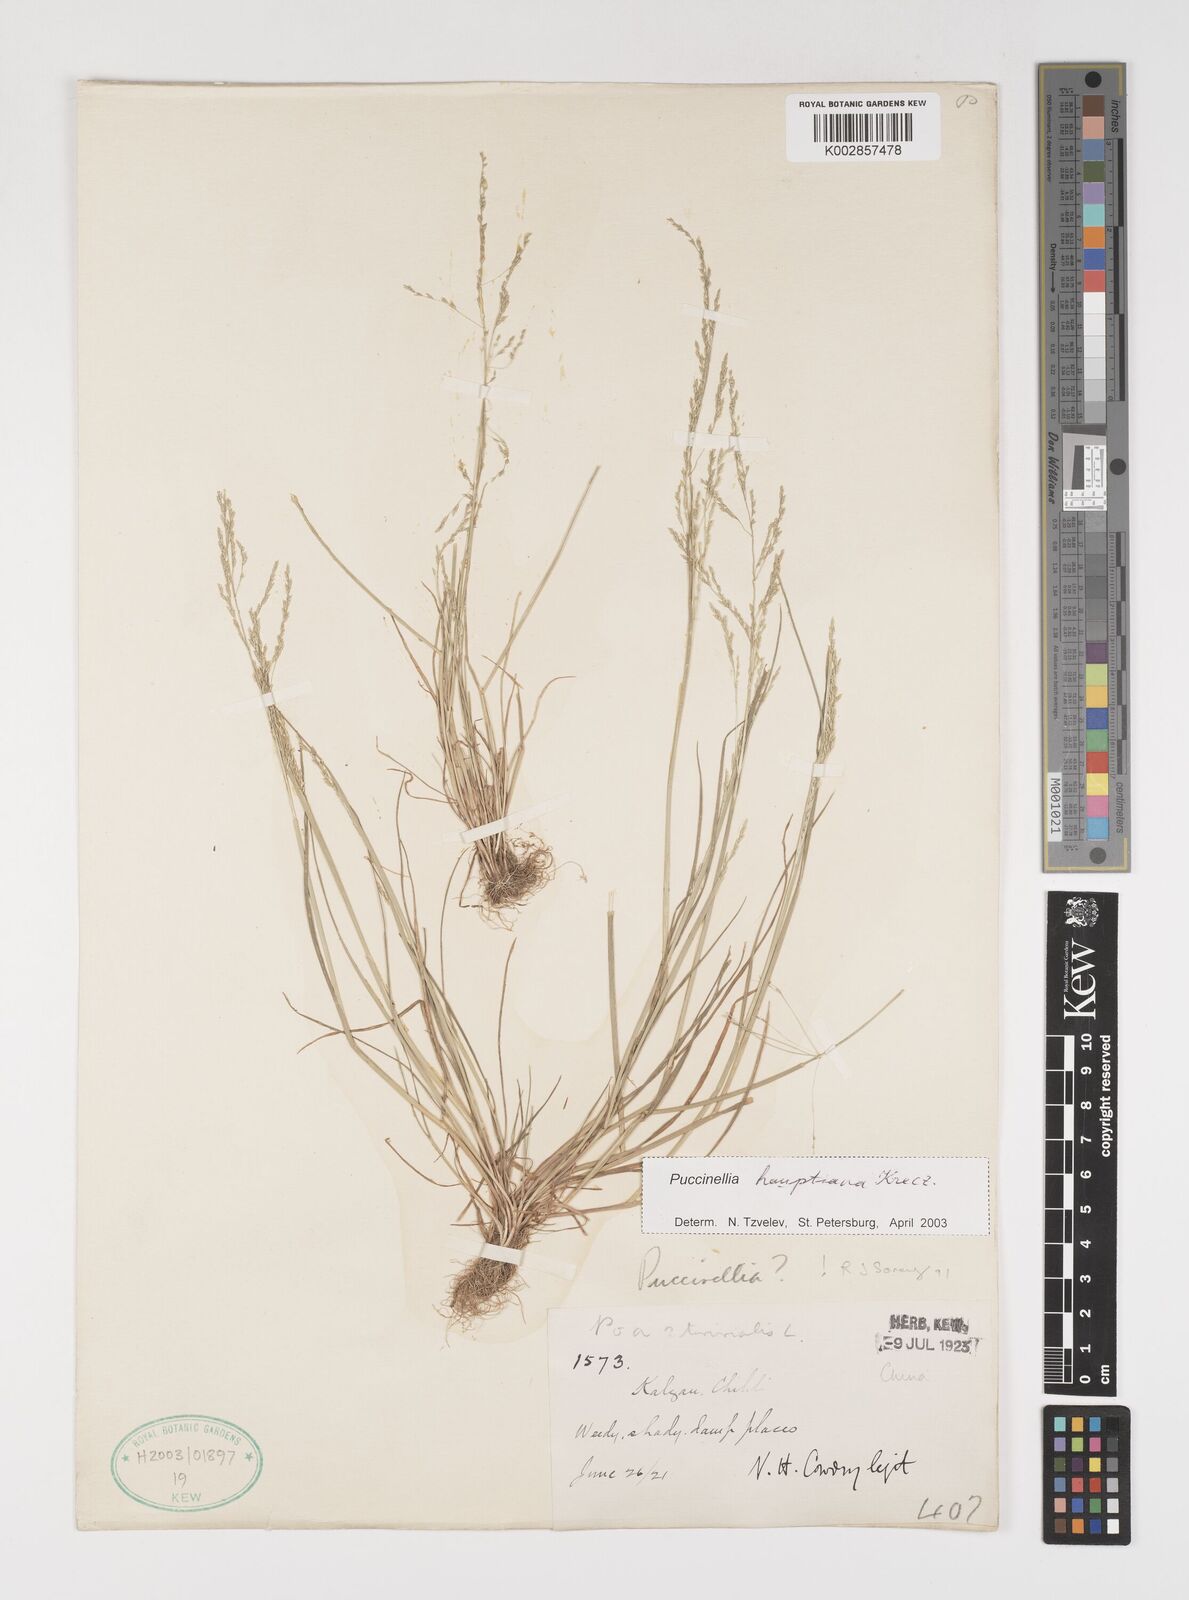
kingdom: Plantae
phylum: Tracheophyta
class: Liliopsida
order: Poales
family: Poaceae
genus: Puccinellia
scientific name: Puccinellia distans
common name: Weeping alkaligrass
